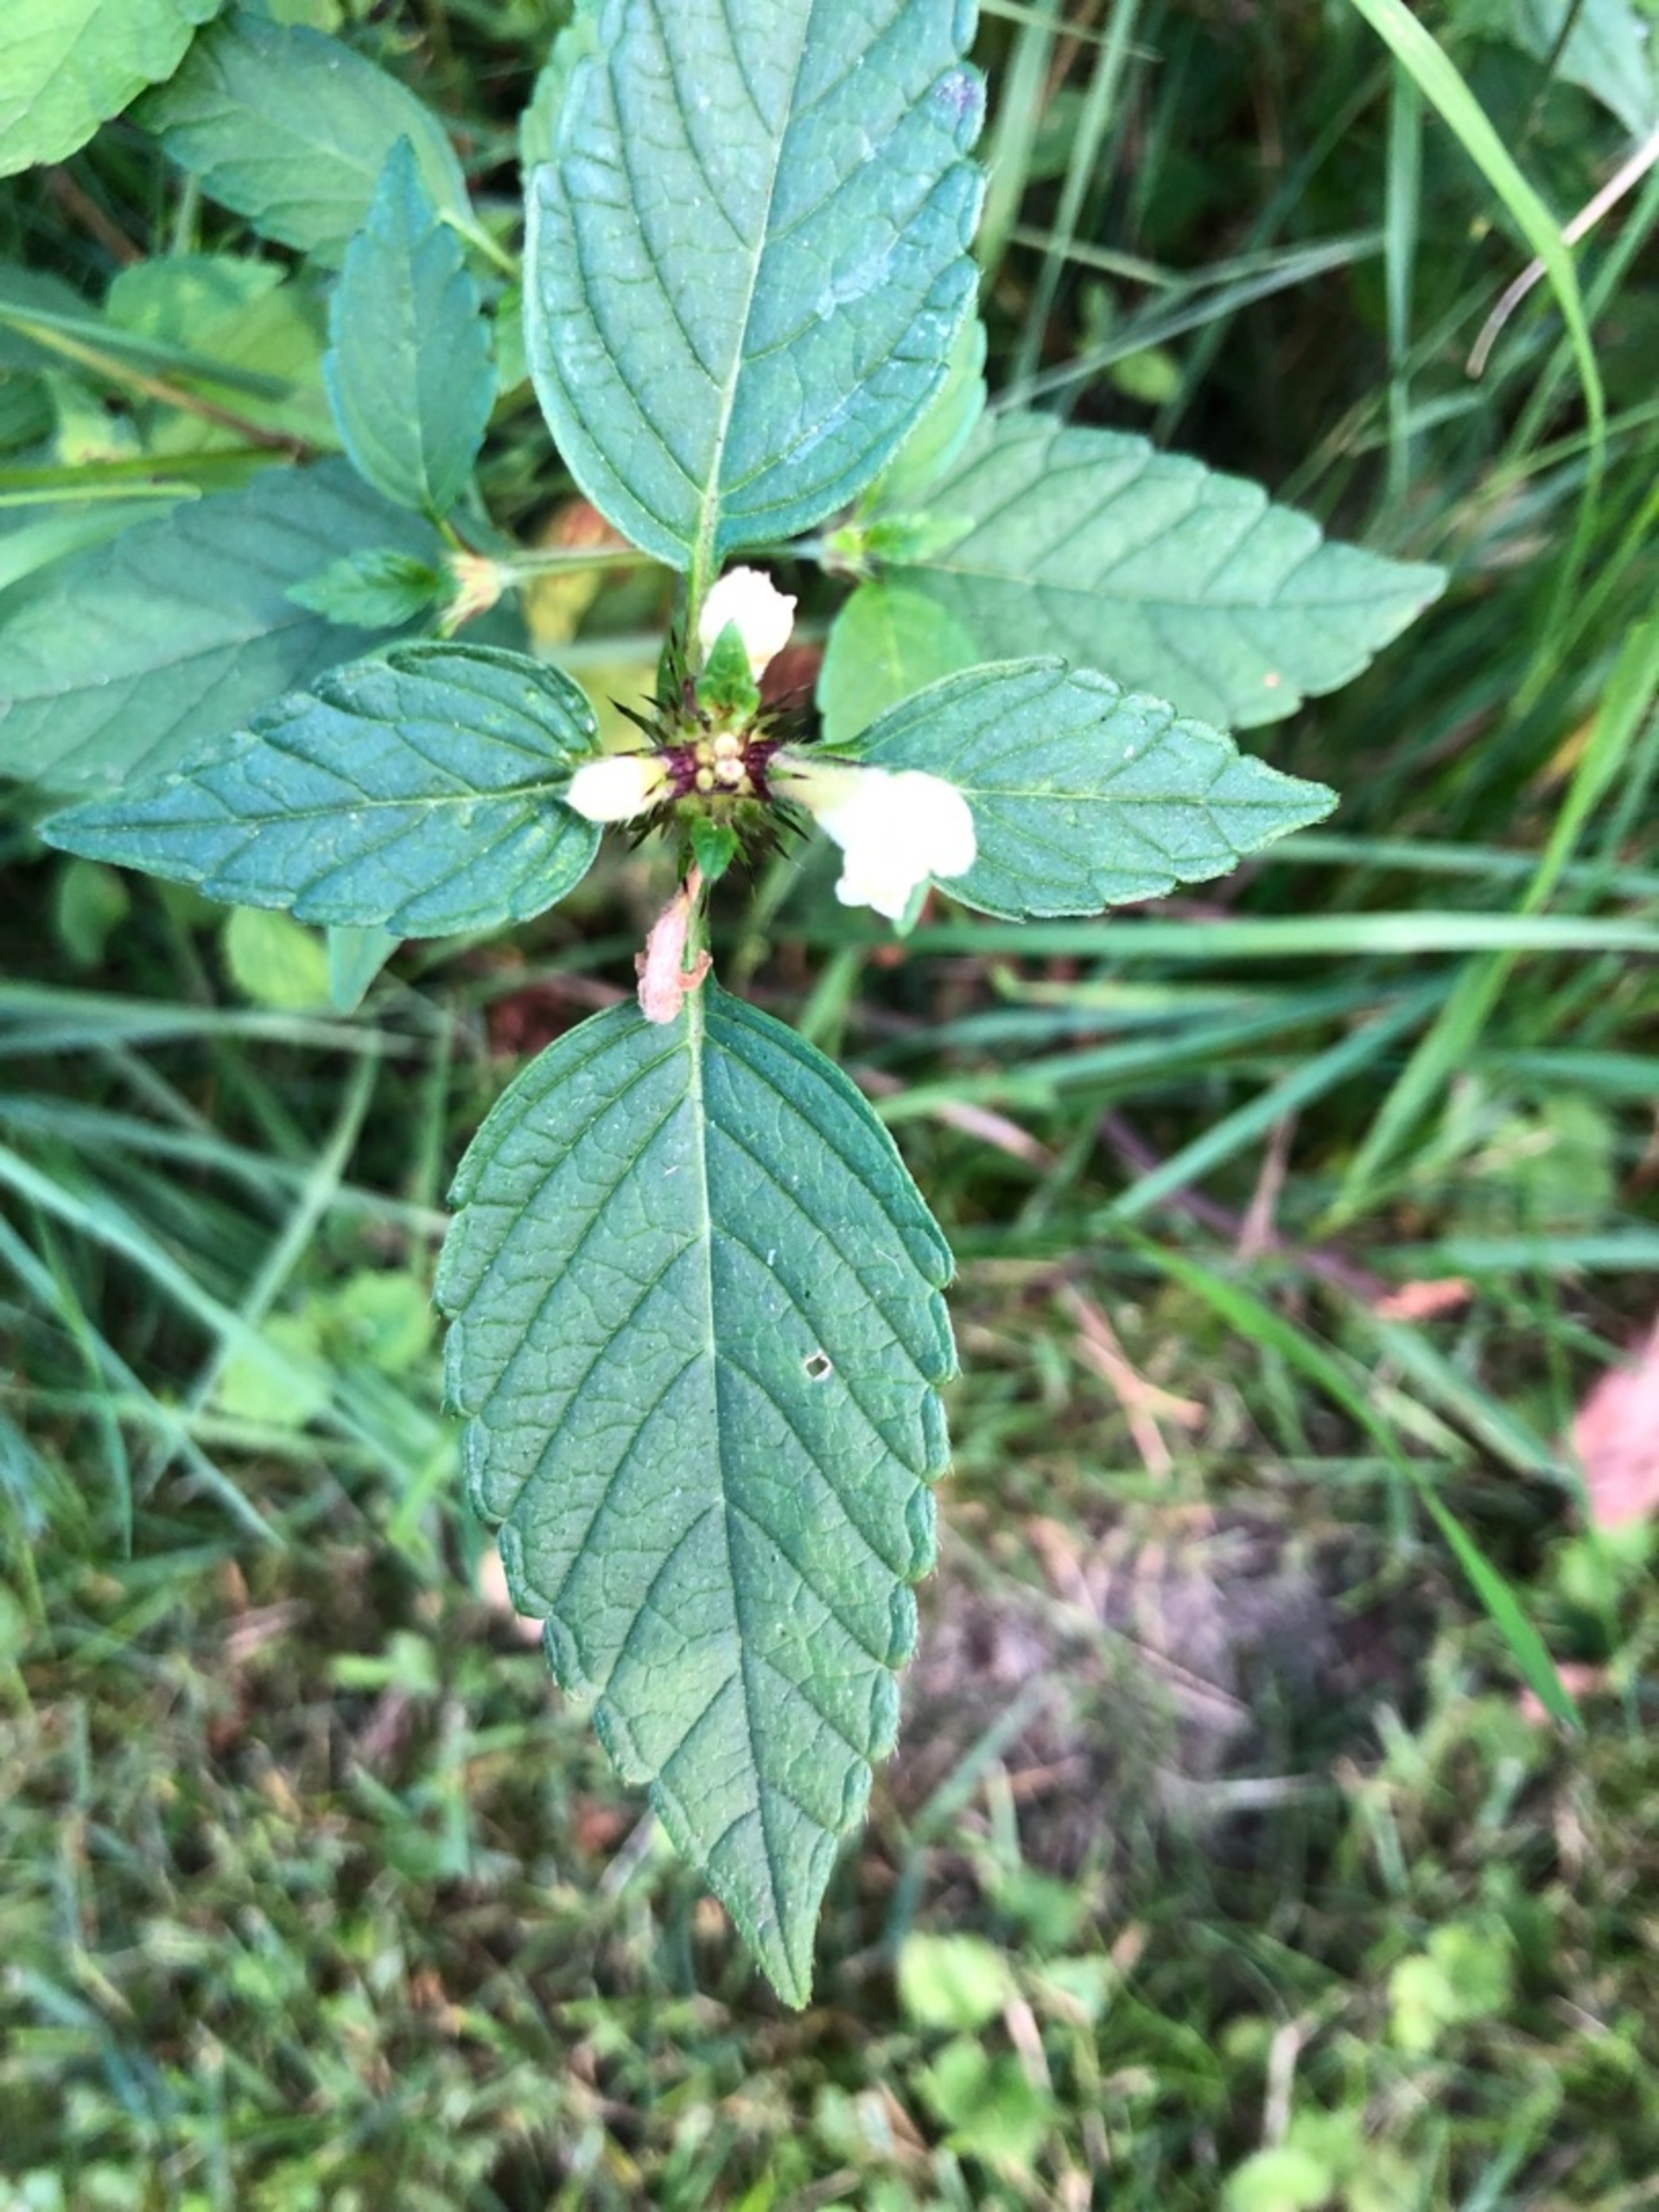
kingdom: Plantae
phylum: Tracheophyta
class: Magnoliopsida
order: Lamiales
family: Lamiaceae
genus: Galeopsis
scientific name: Galeopsis tetrahit
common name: Almindelig hanekro
